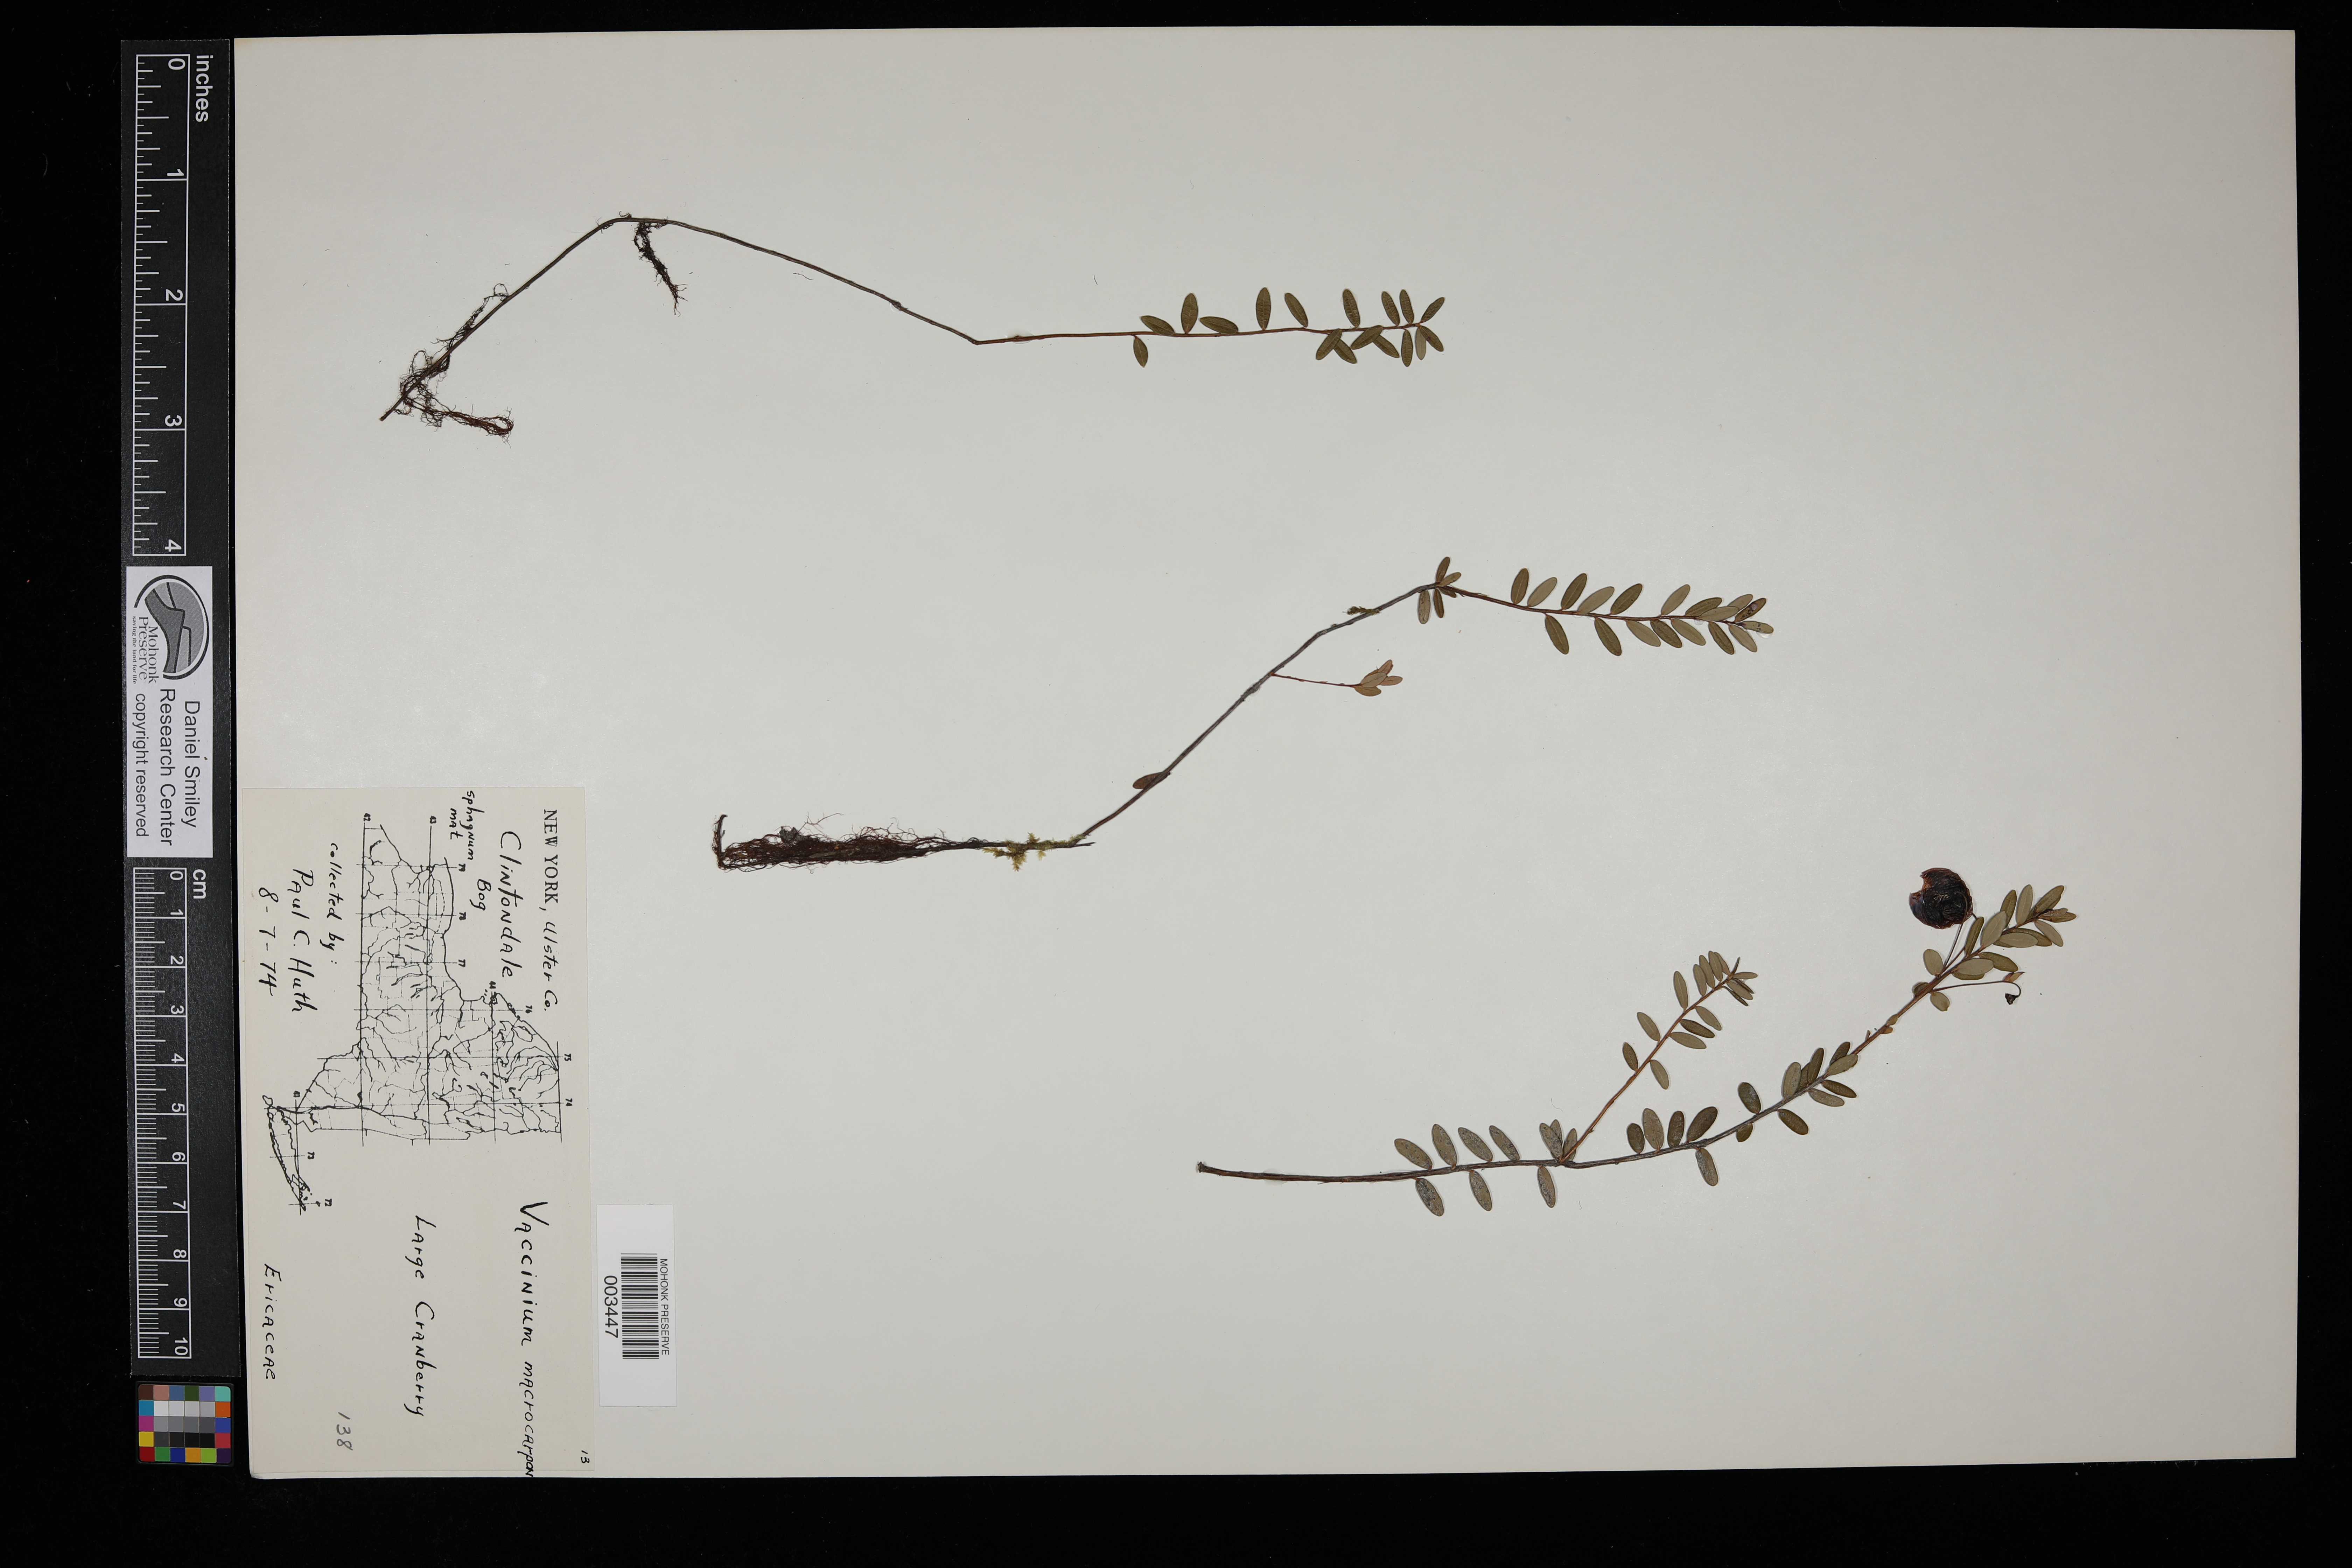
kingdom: Plantae
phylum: Tracheophyta
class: Magnoliopsida
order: Ericales
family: Ericaceae
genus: Vaccinium
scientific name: Vaccinium macrocarpon
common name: American cranberry
